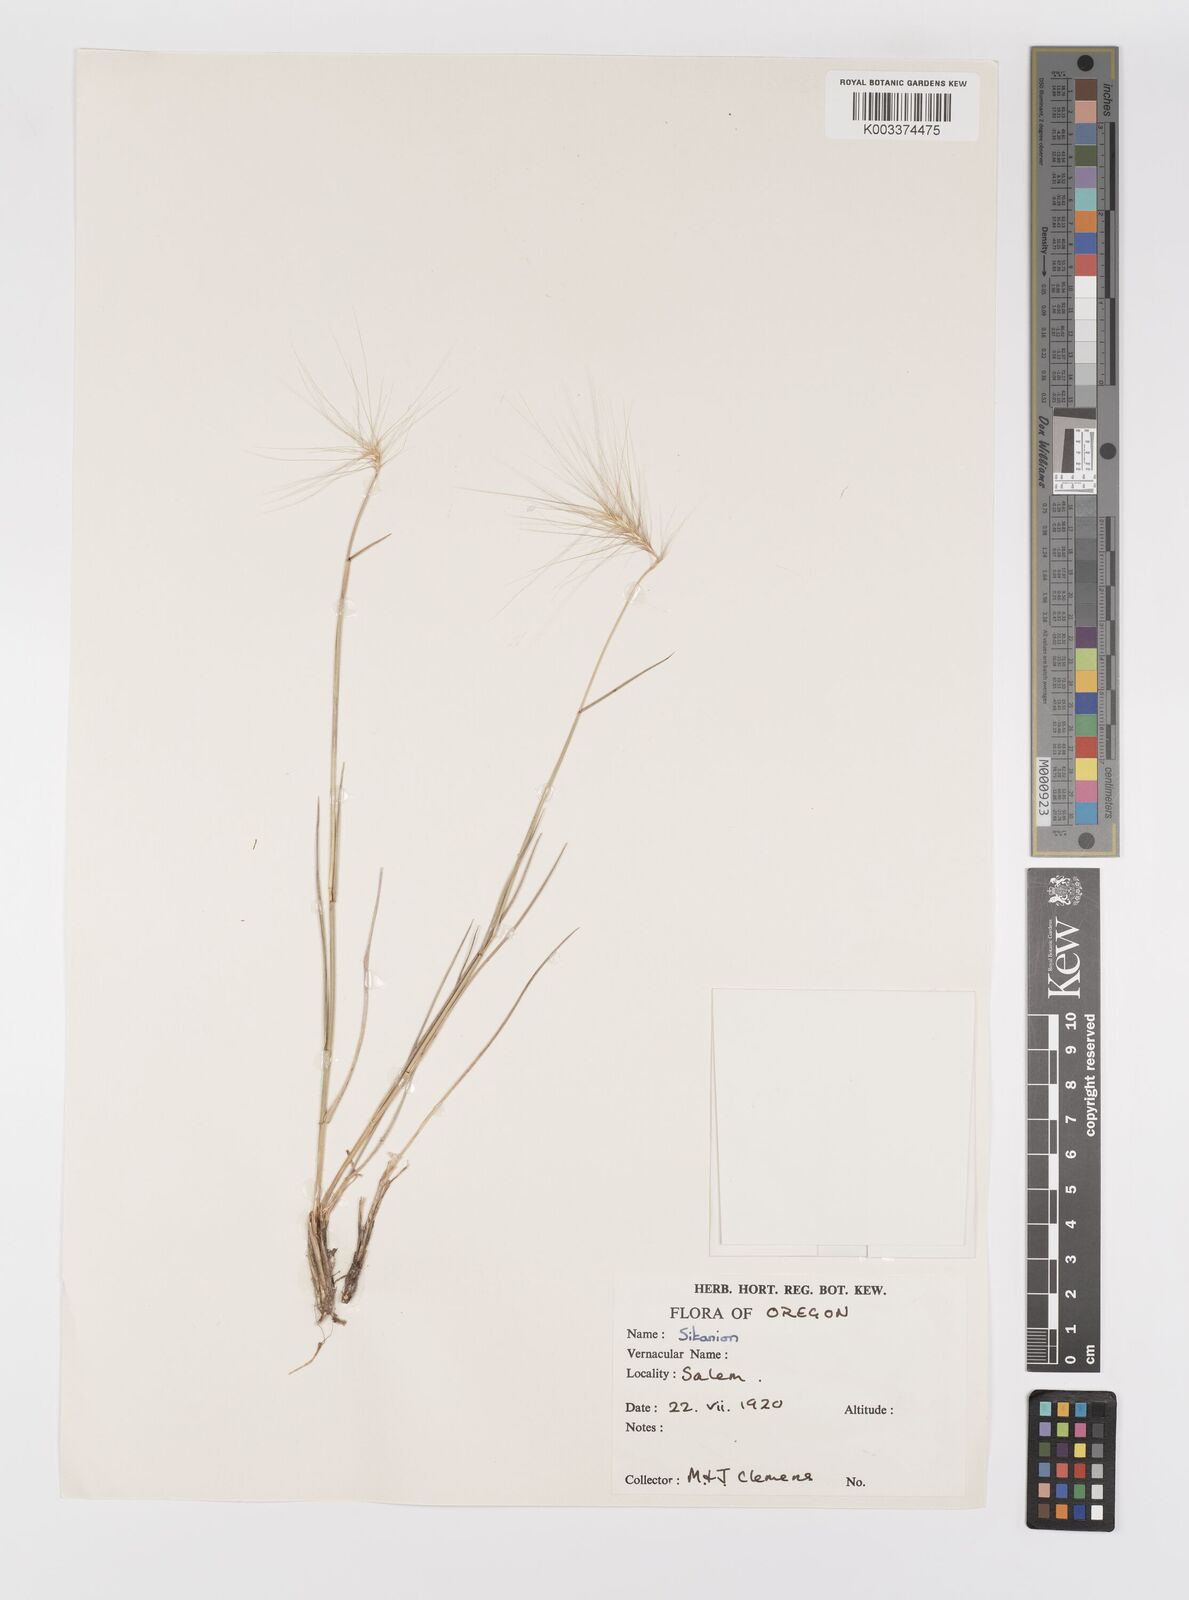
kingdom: Plantae
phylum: Tracheophyta
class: Liliopsida
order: Poales
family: Poaceae
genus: Elymus
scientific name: Elymus multisetus
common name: Big squirreltail
